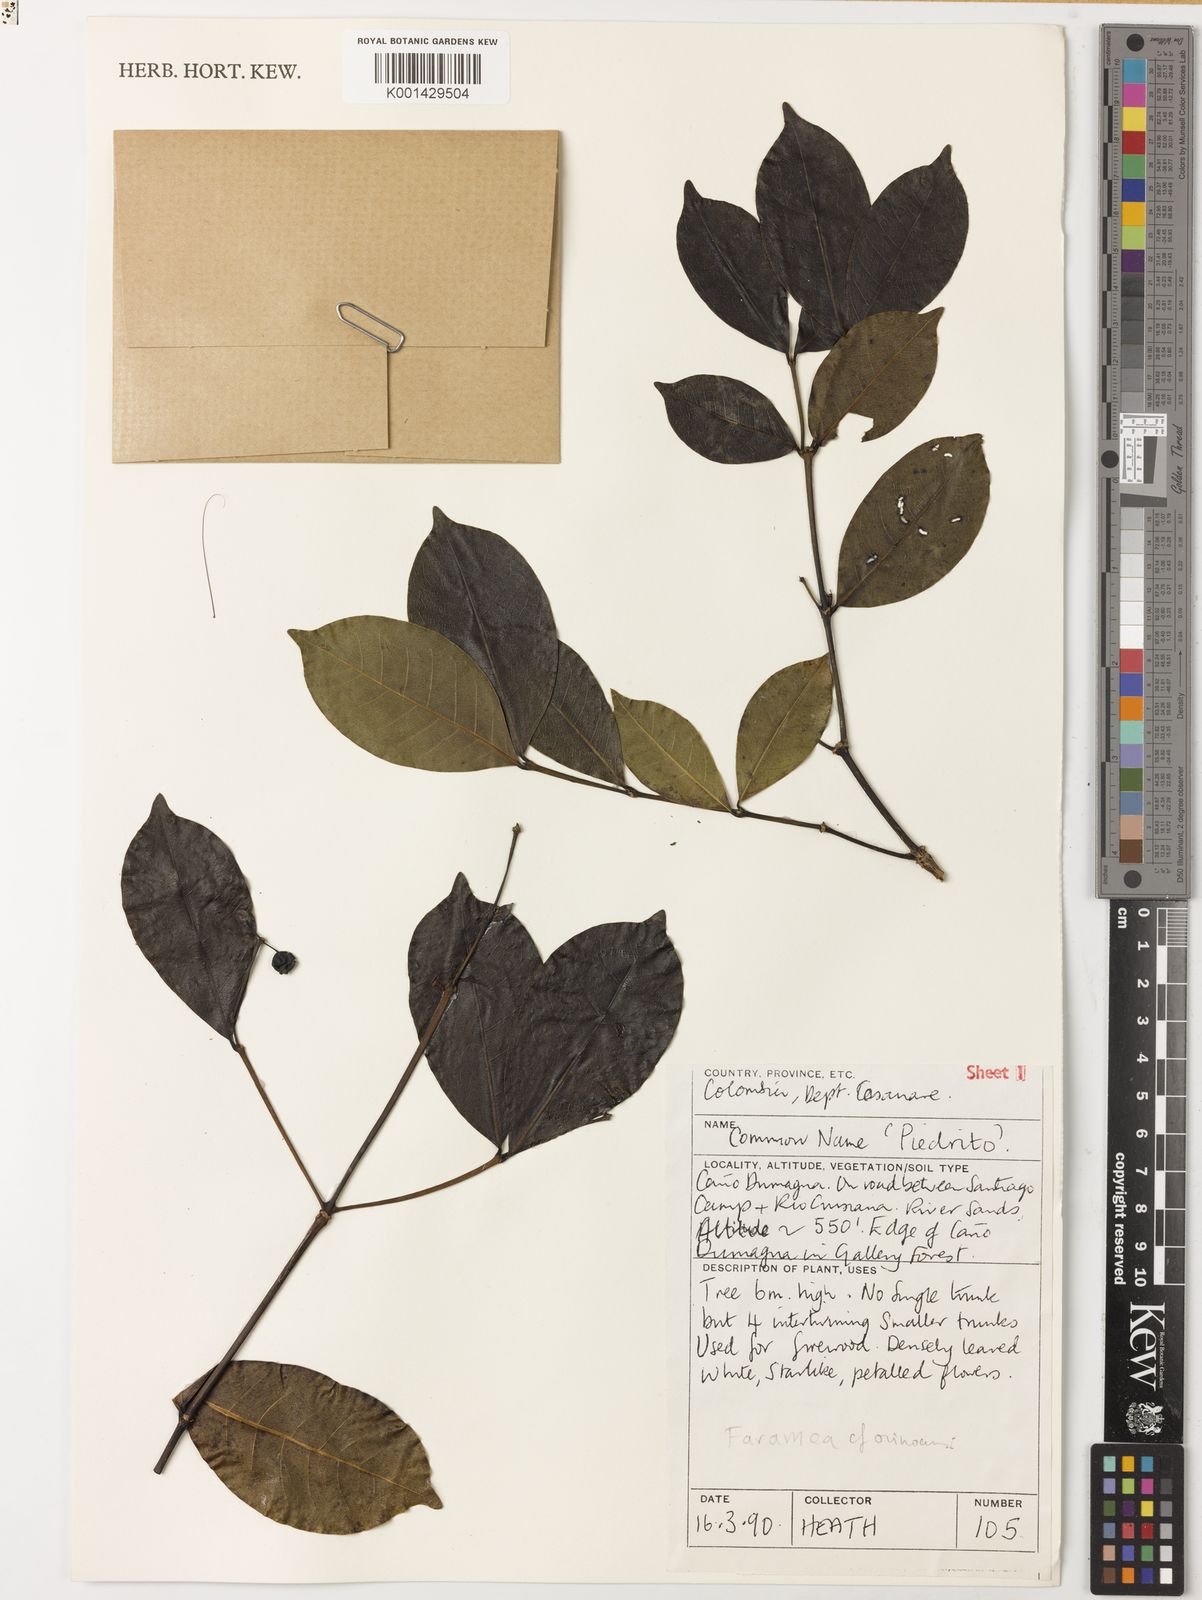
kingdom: Plantae
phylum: Tracheophyta
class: Magnoliopsida
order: Gentianales
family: Rubiaceae
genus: Faramea
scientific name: Faramea orinocencis
